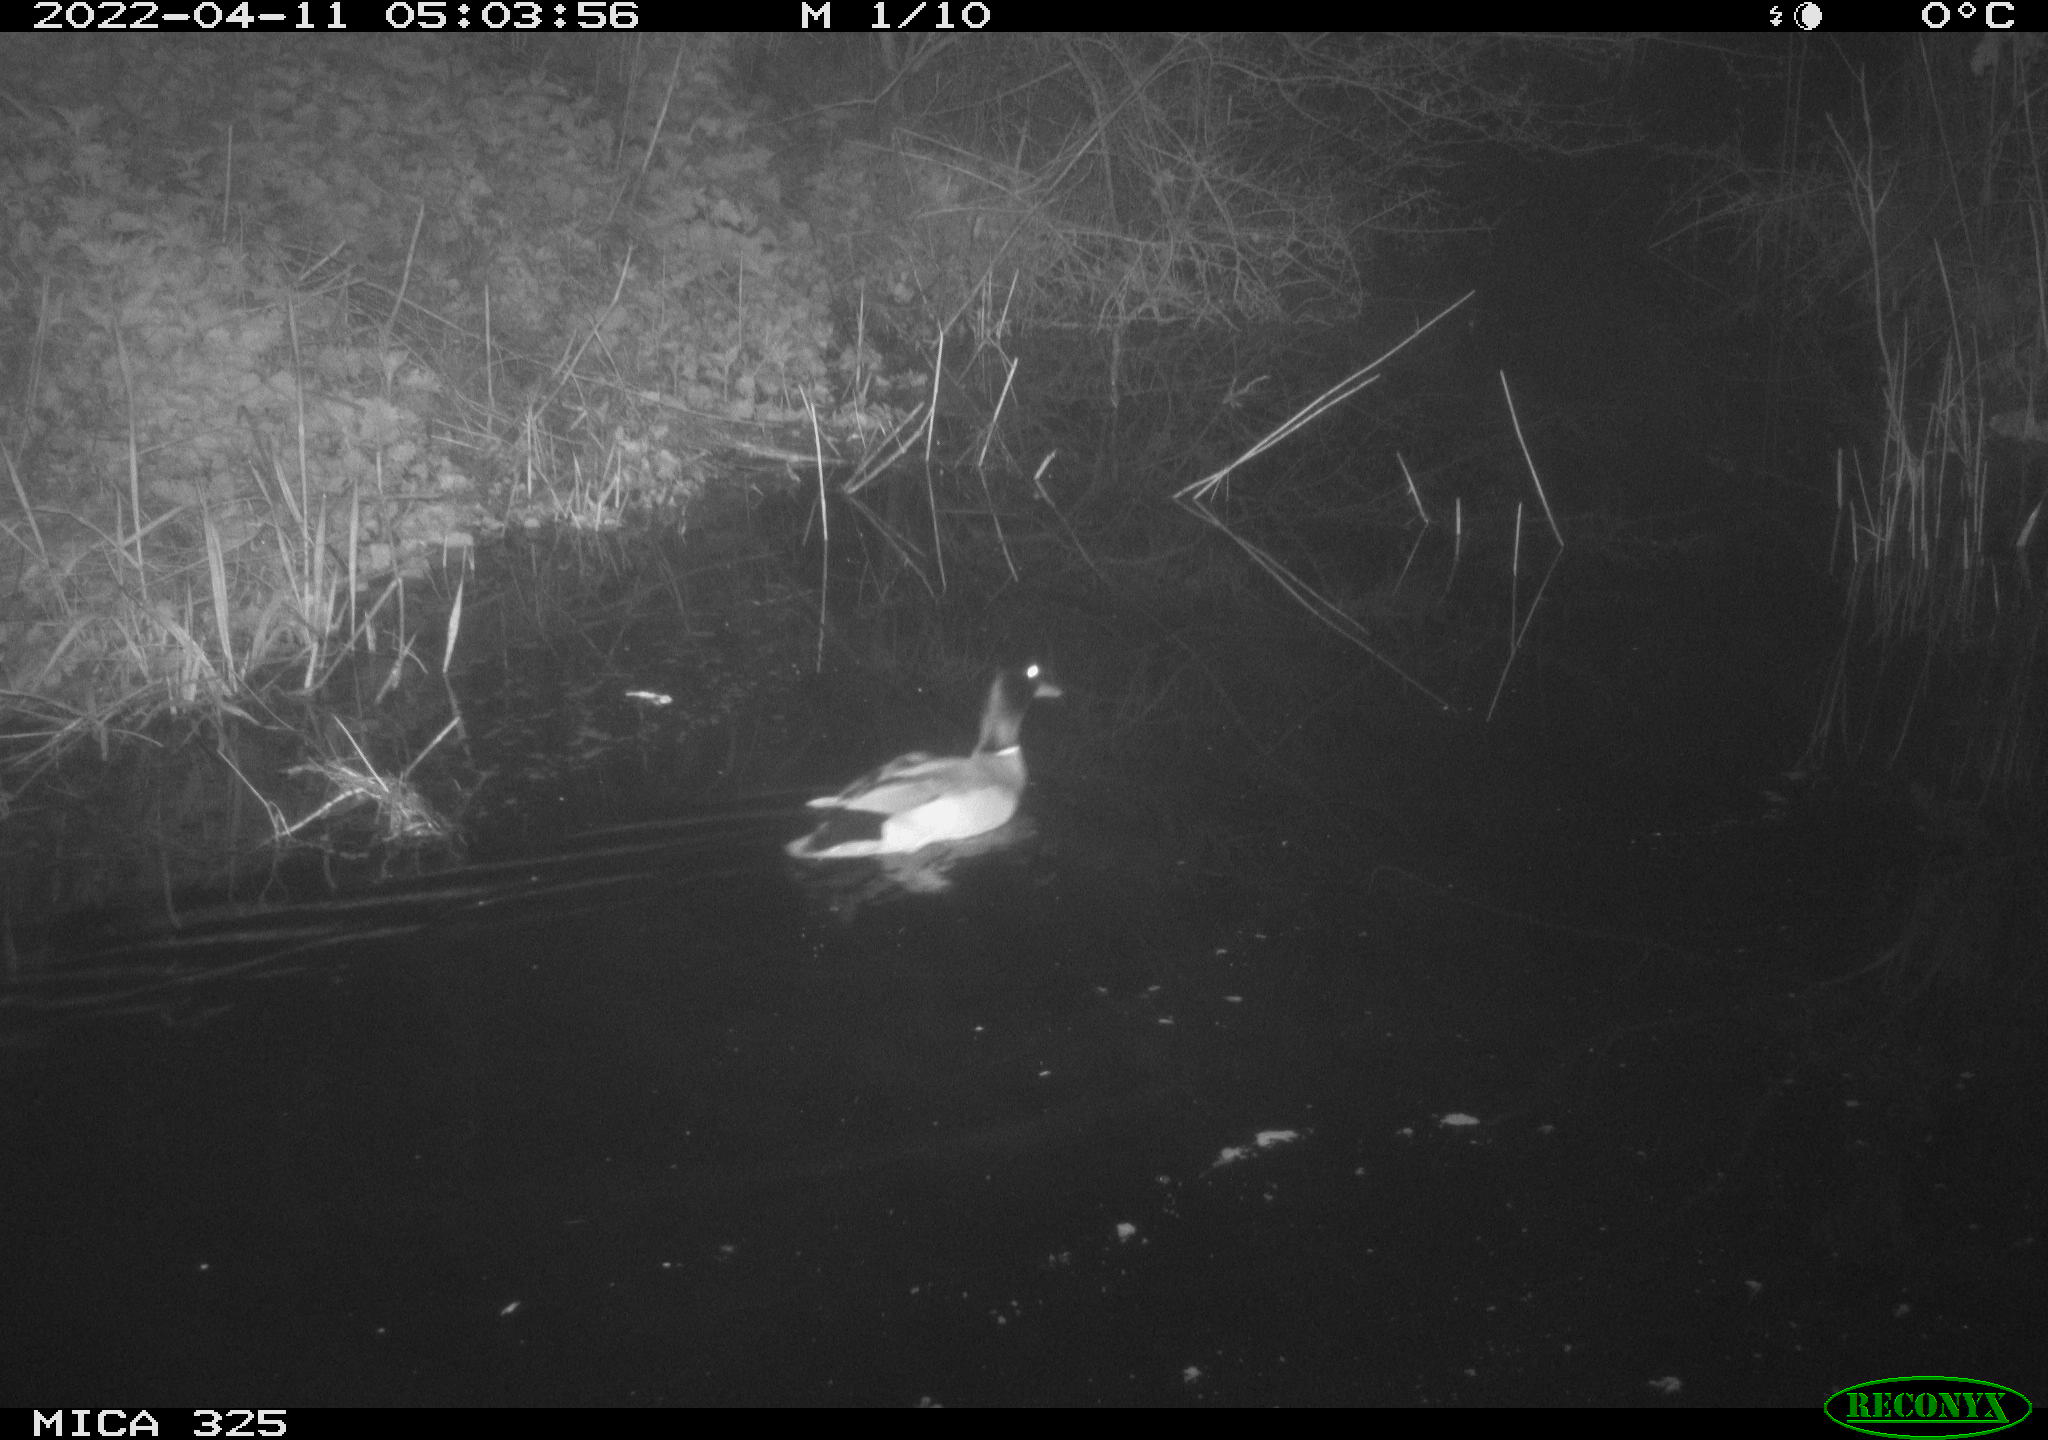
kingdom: Animalia
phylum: Chordata
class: Aves
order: Anseriformes
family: Anatidae
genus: Anas
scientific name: Anas platyrhynchos
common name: Mallard
